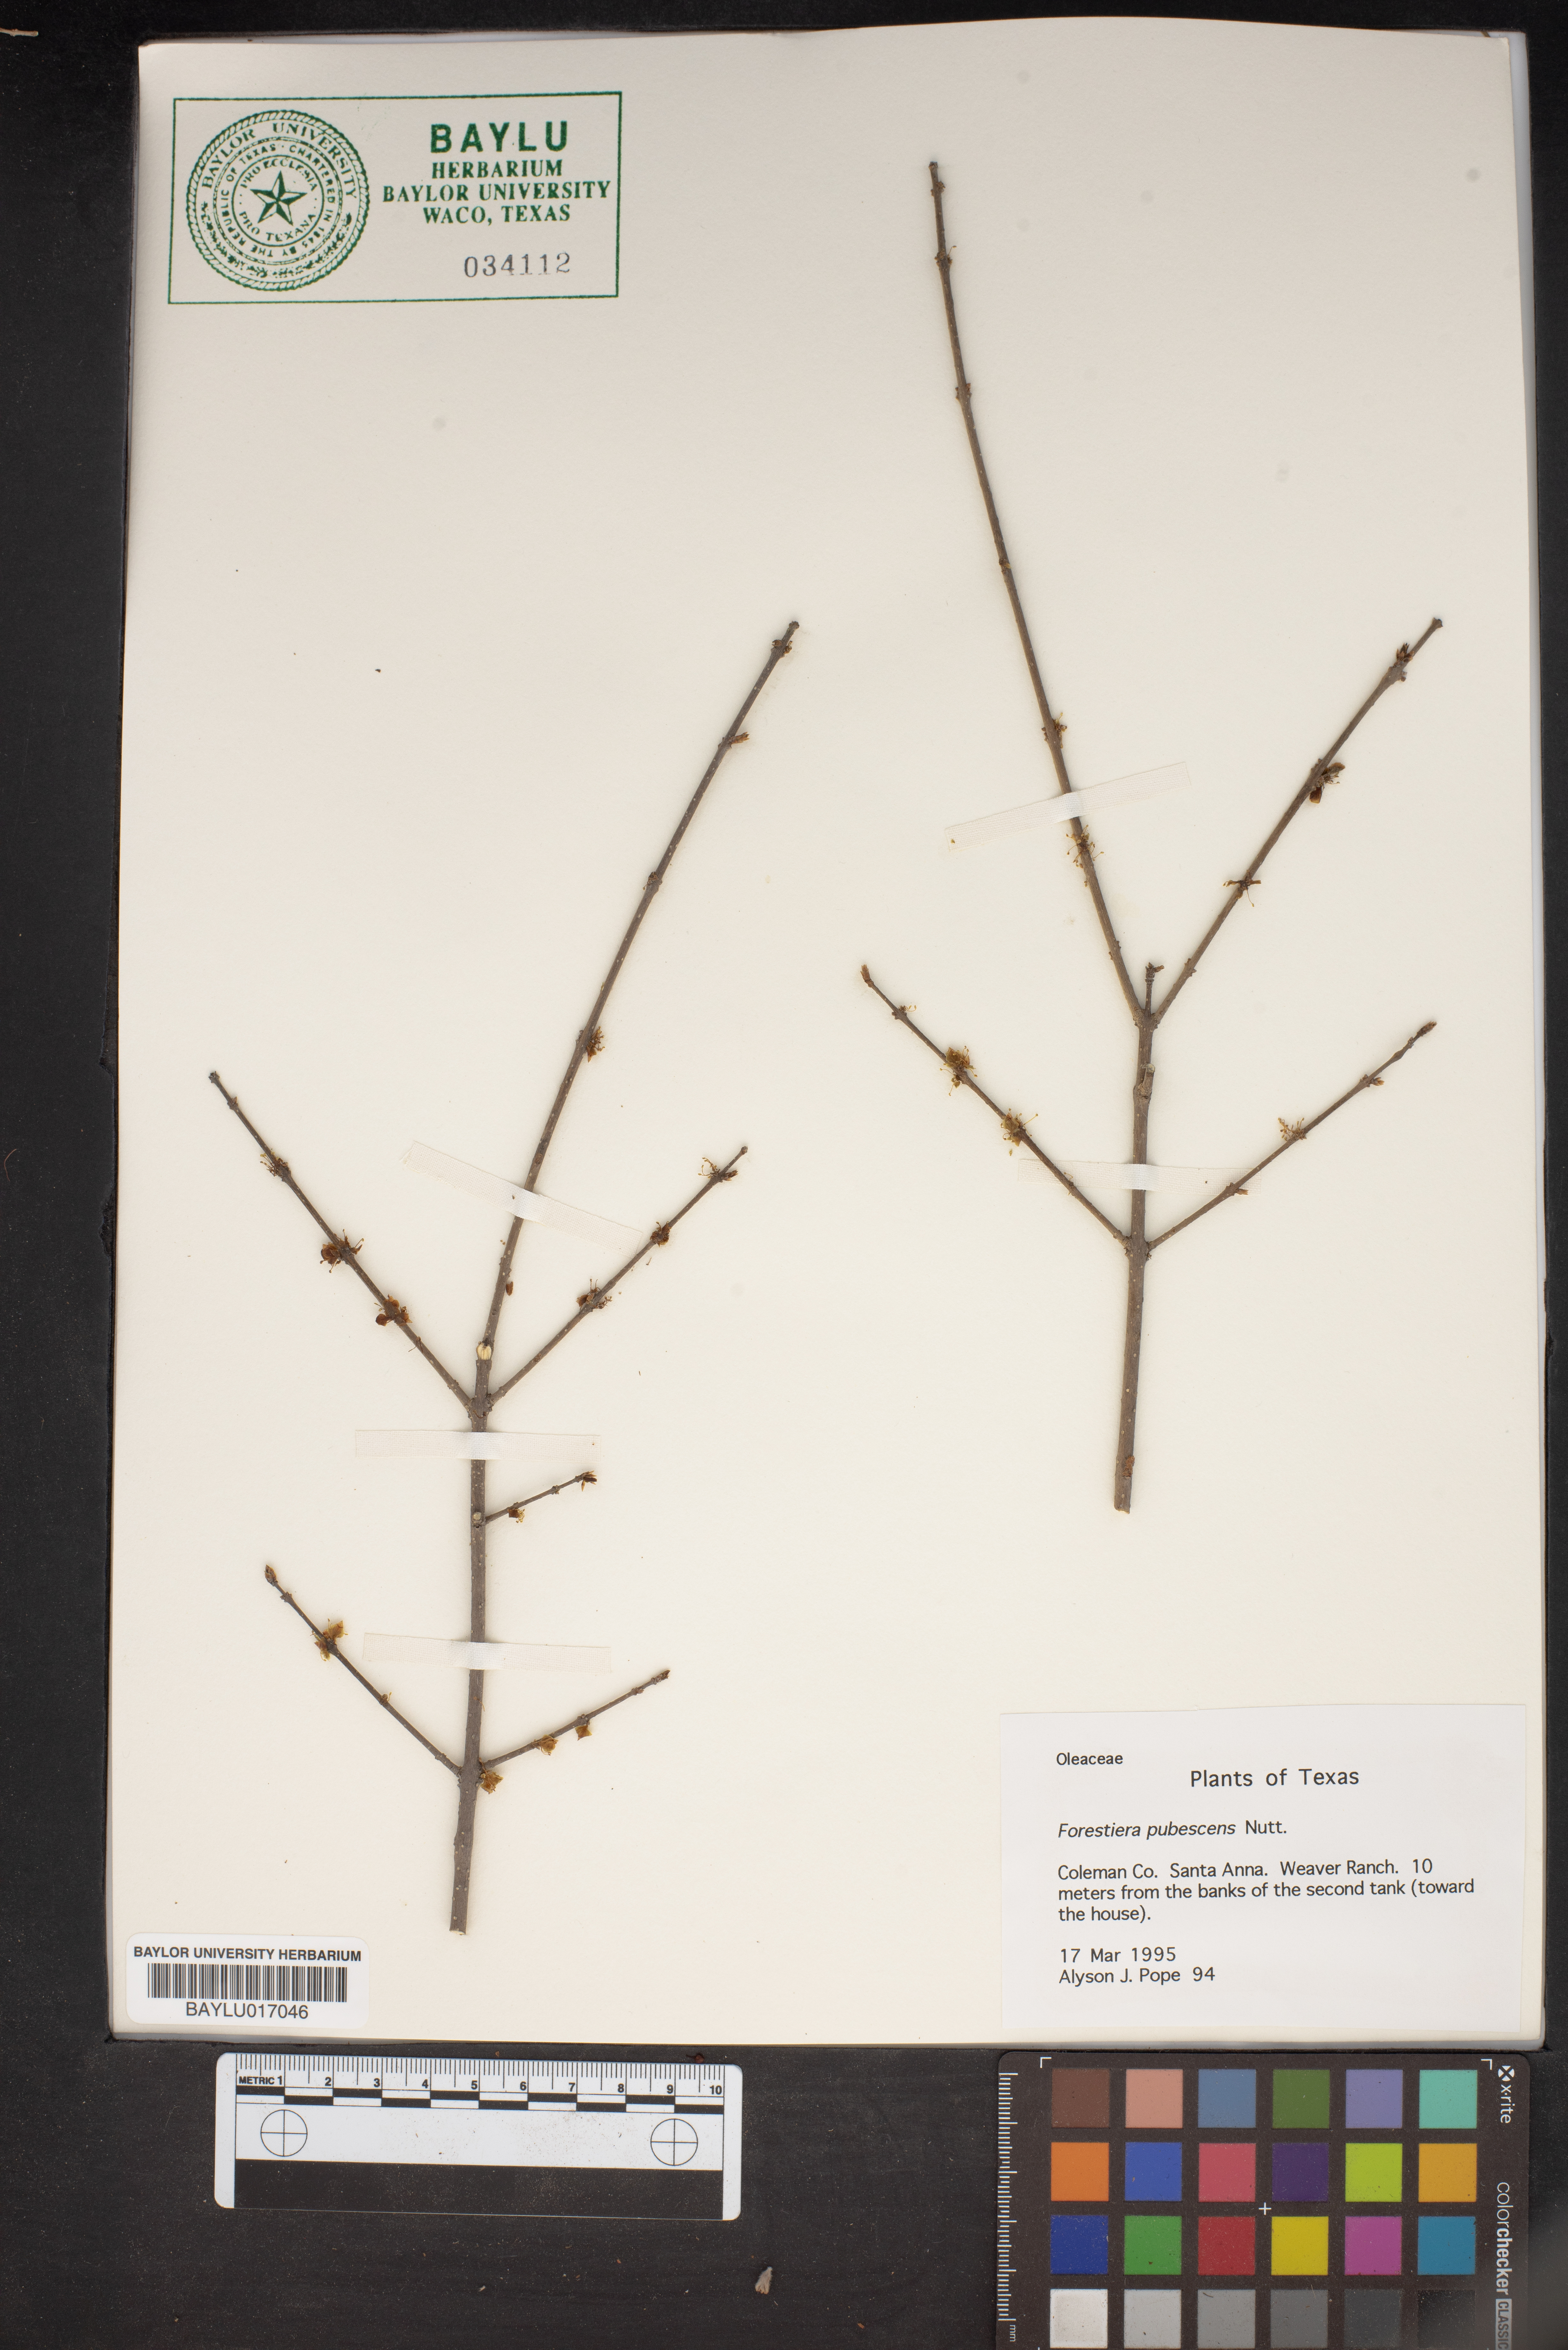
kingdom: Plantae
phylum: Tracheophyta
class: Magnoliopsida
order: Lamiales
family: Oleaceae
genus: Forestiera
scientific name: Forestiera pubescens
